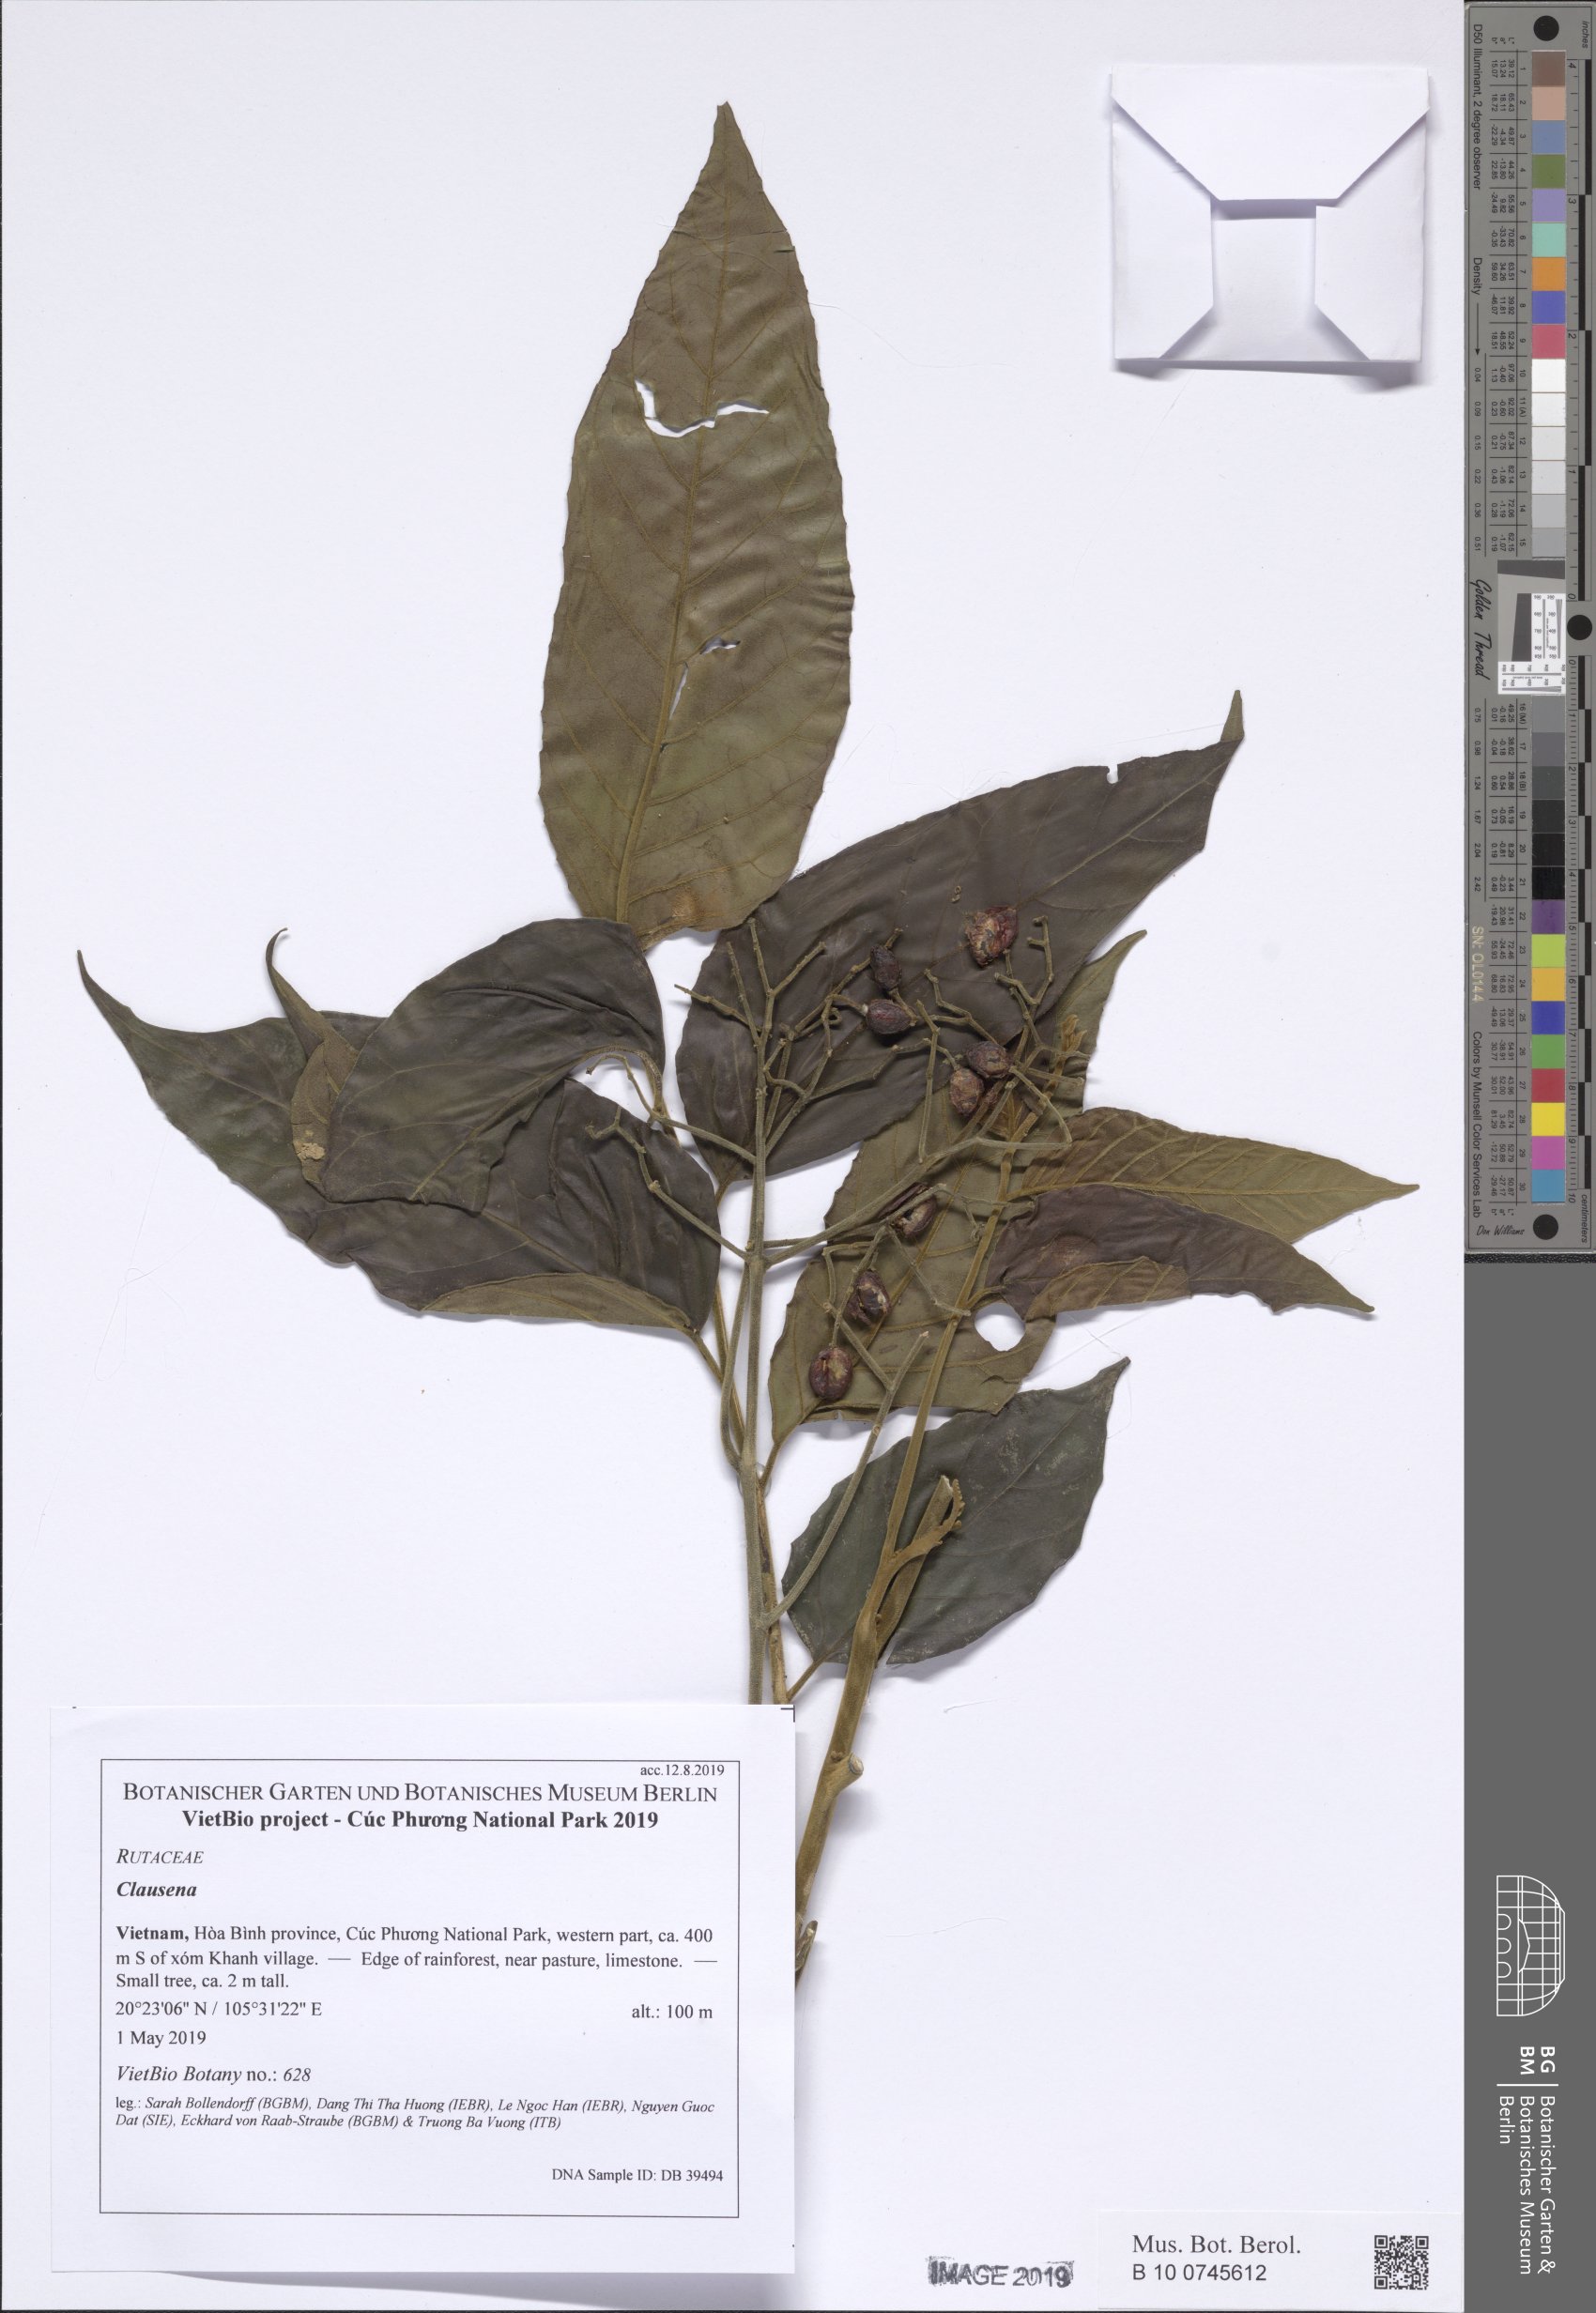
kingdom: Plantae
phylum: Tracheophyta
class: Magnoliopsida
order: Sapindales
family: Rutaceae
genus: Clausena
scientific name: Clausena anisata
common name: Horsewood
